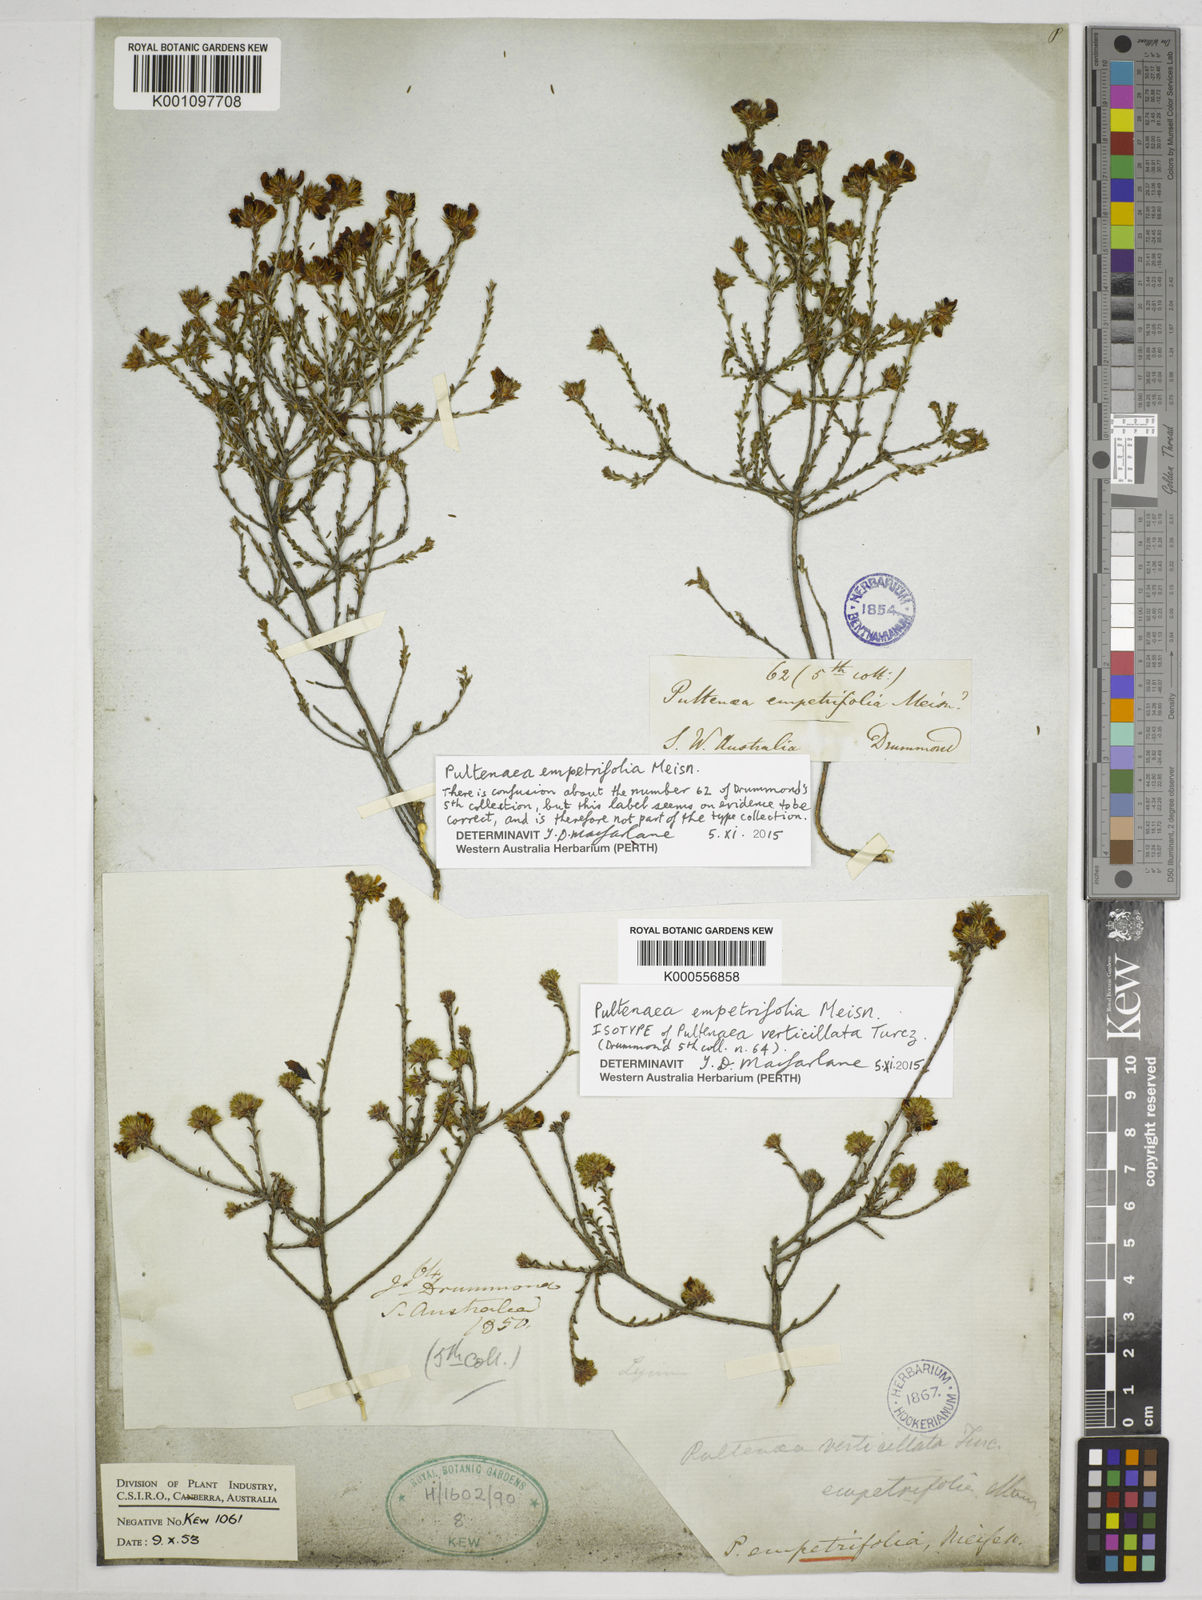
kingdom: Plantae
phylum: Tracheophyta
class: Magnoliopsida
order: Fabales
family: Fabaceae
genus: Pultenaea
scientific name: Pultenaea empetrifolia
